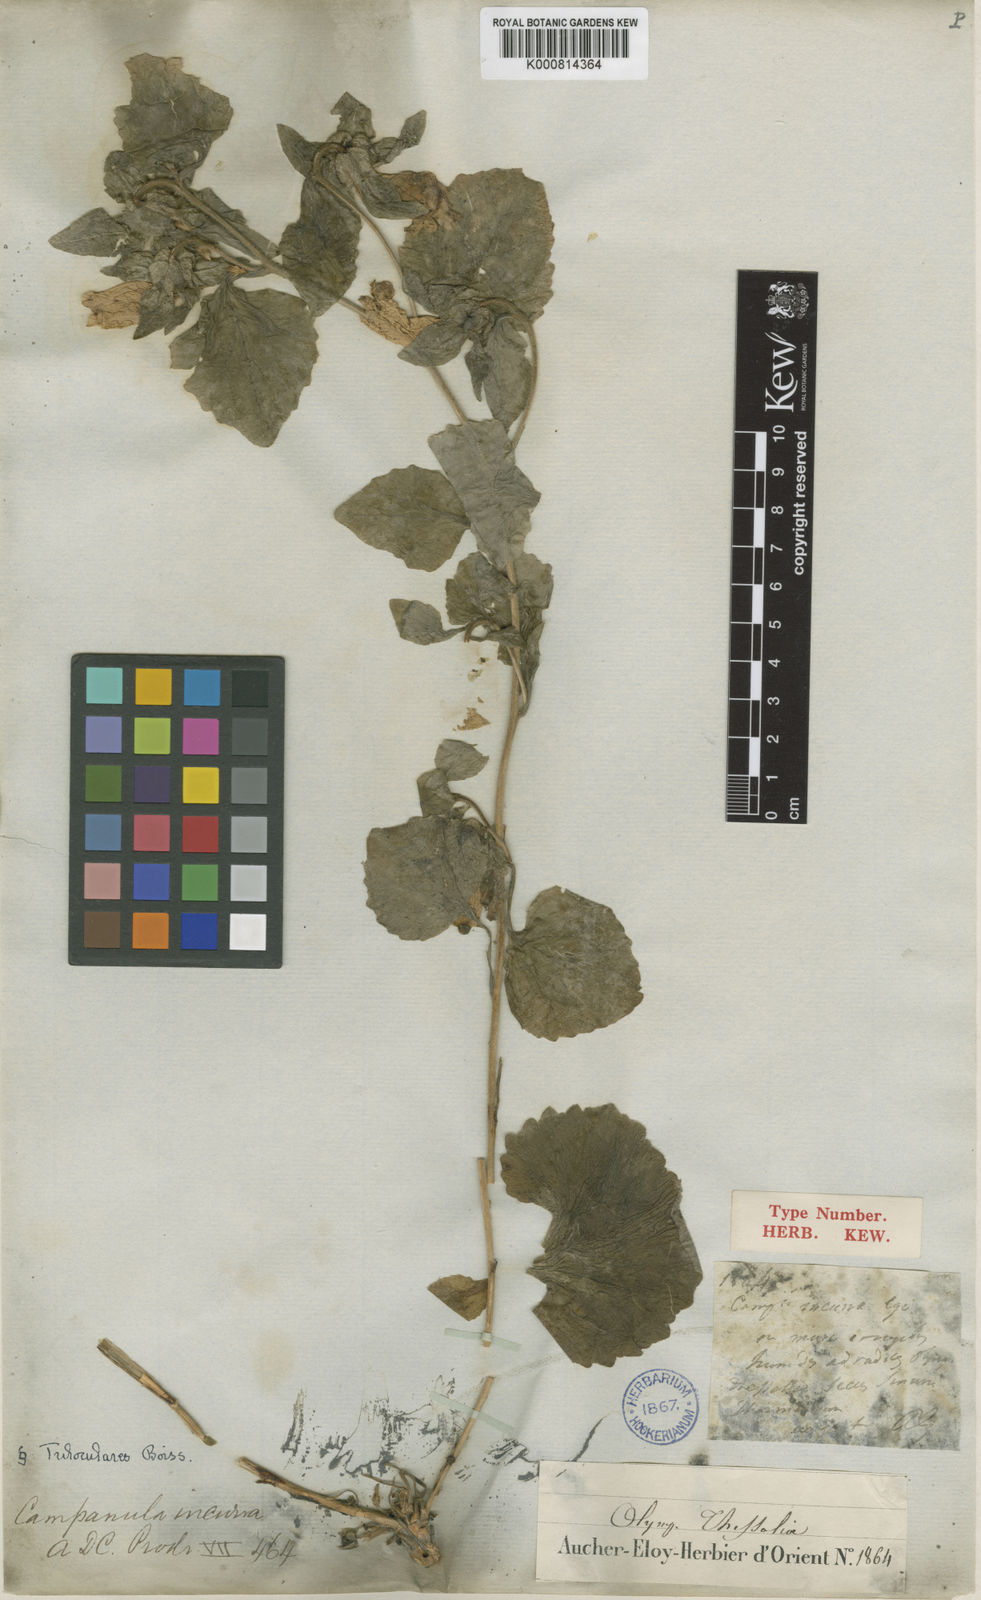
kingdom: Plantae
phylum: Tracheophyta
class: Magnoliopsida
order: Asterales
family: Campanulaceae
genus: Campanula
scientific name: Campanula incurva
